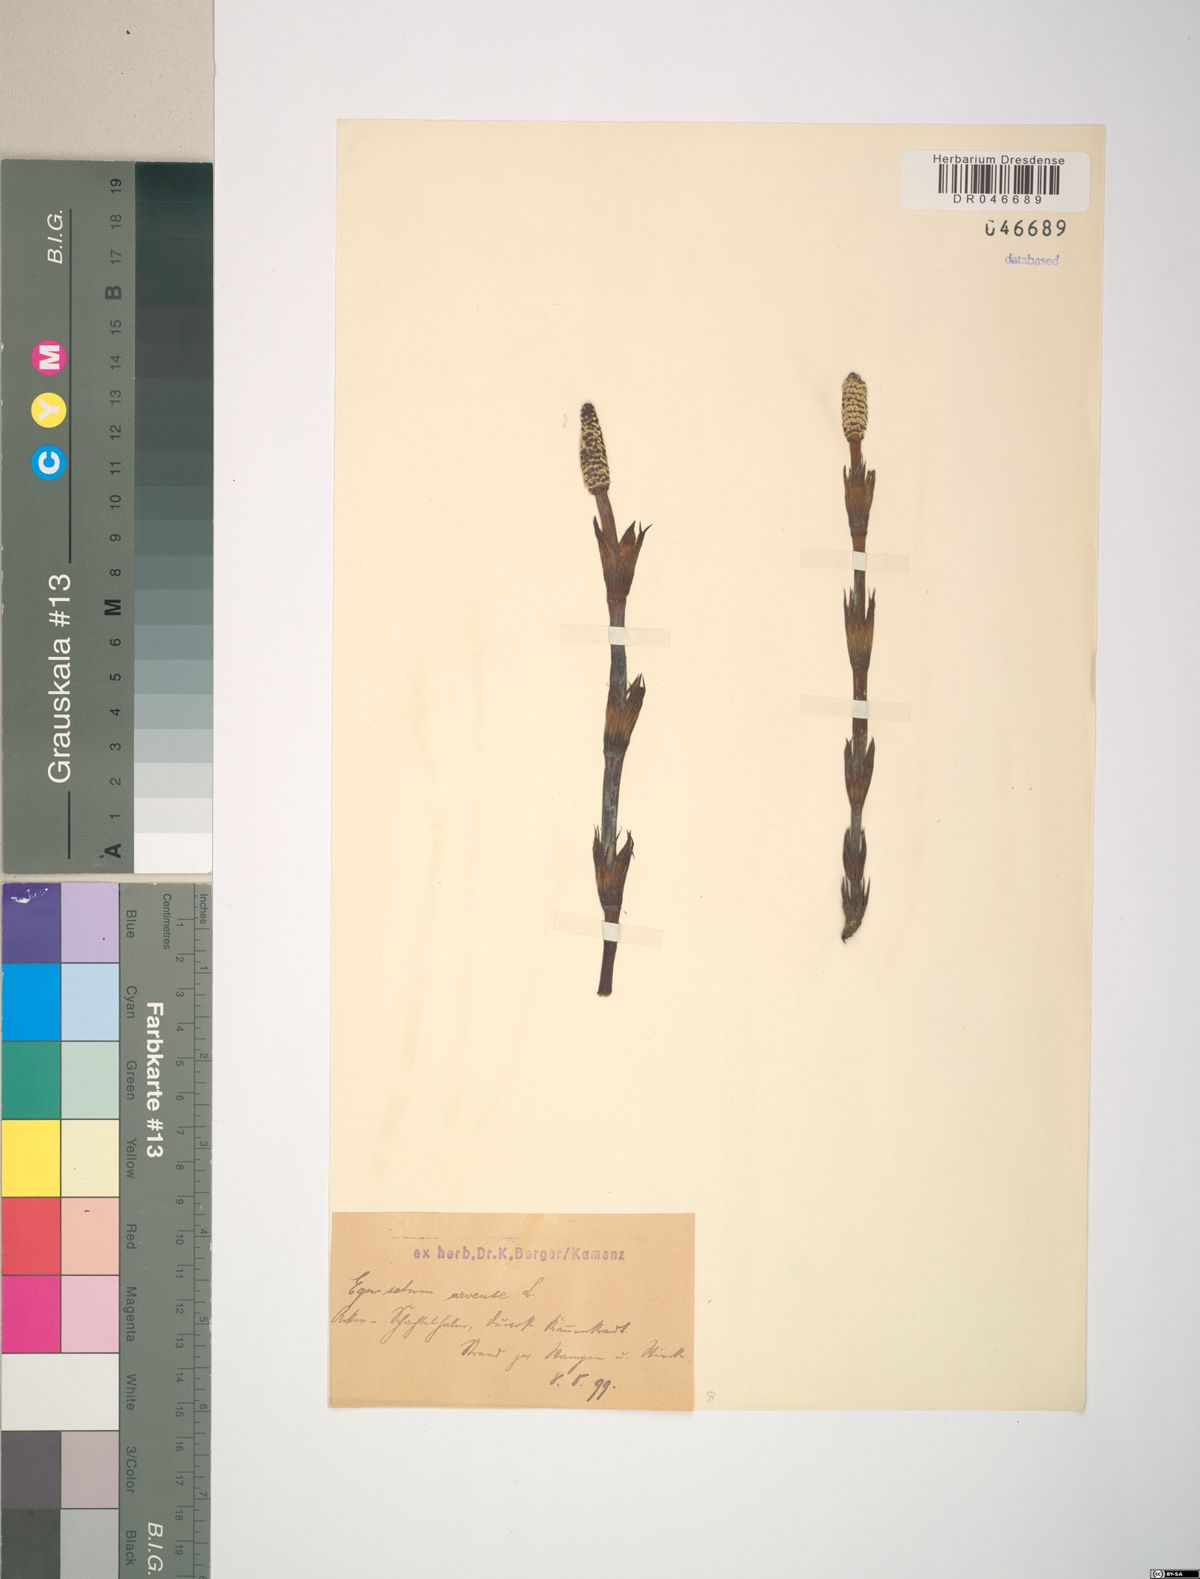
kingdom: Plantae
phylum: Tracheophyta
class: Polypodiopsida
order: Equisetales
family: Equisetaceae
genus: Equisetum
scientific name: Equisetum arvense
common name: Field horsetail
